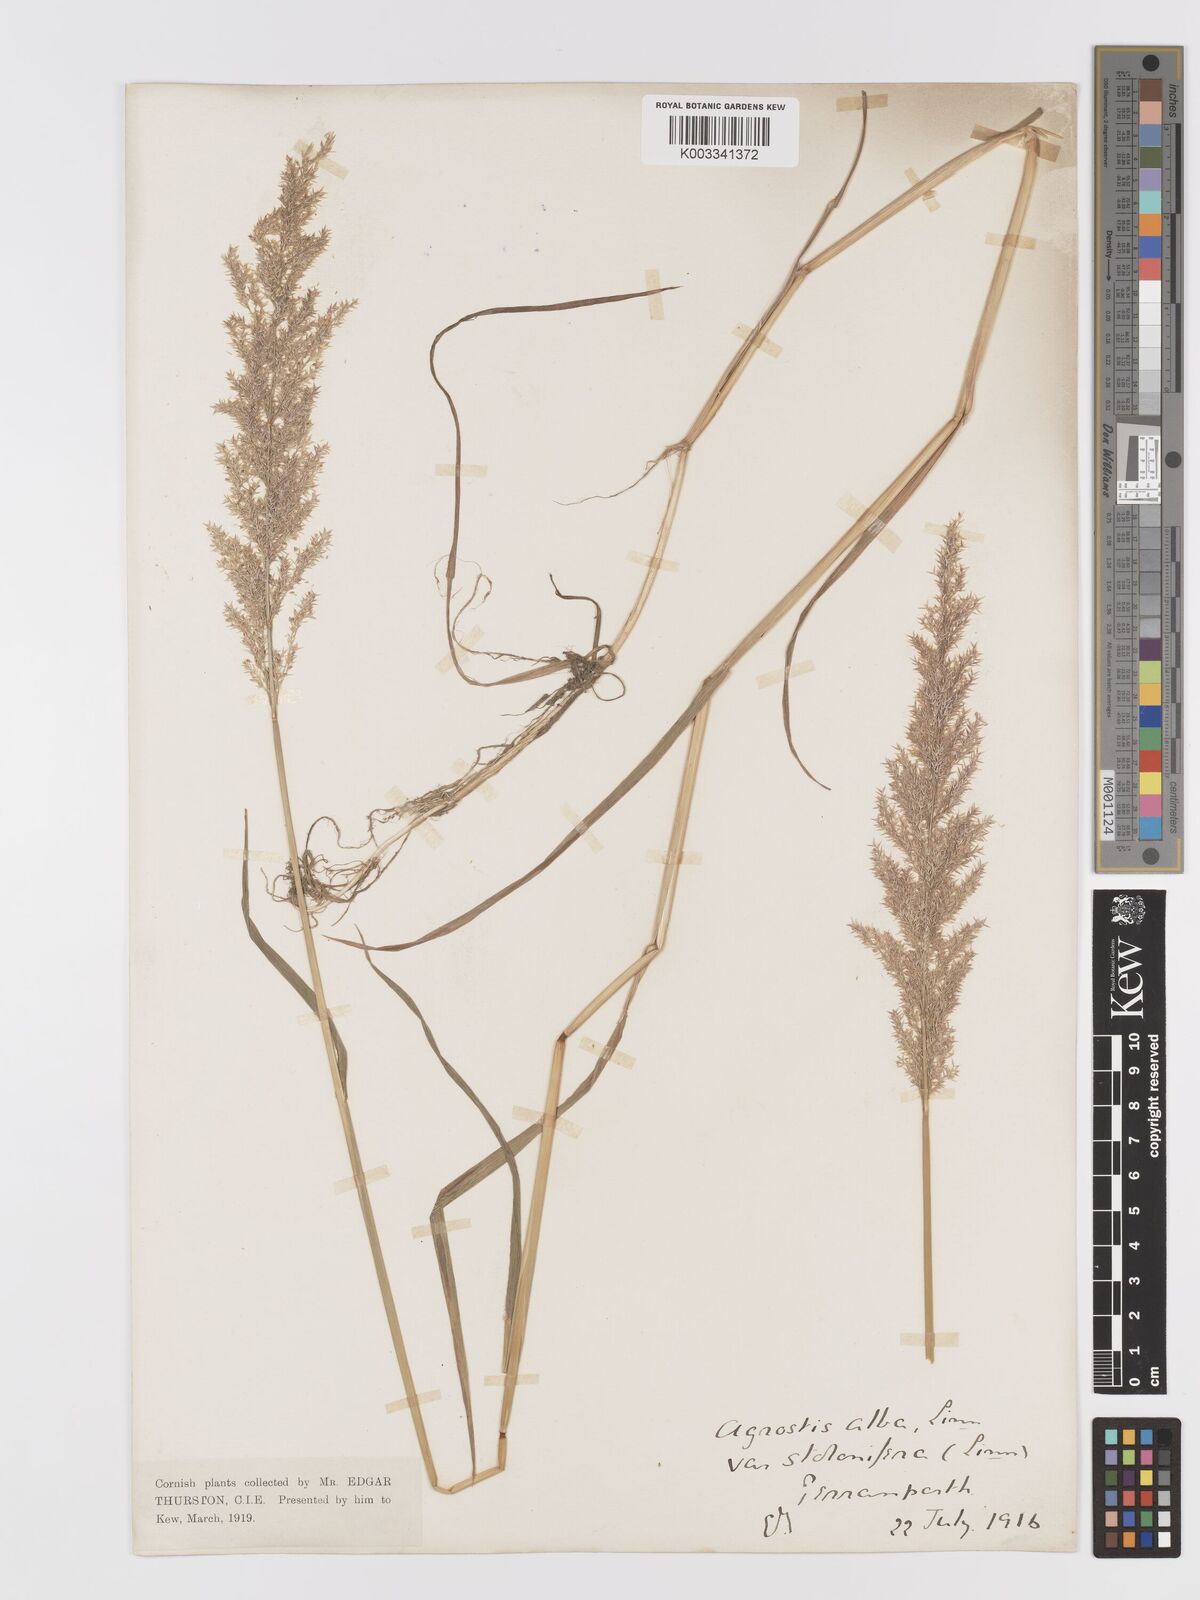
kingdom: Plantae
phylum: Tracheophyta
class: Liliopsida
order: Poales
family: Poaceae
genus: Agrostis
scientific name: Agrostis stolonifera
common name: Creeping bentgrass
